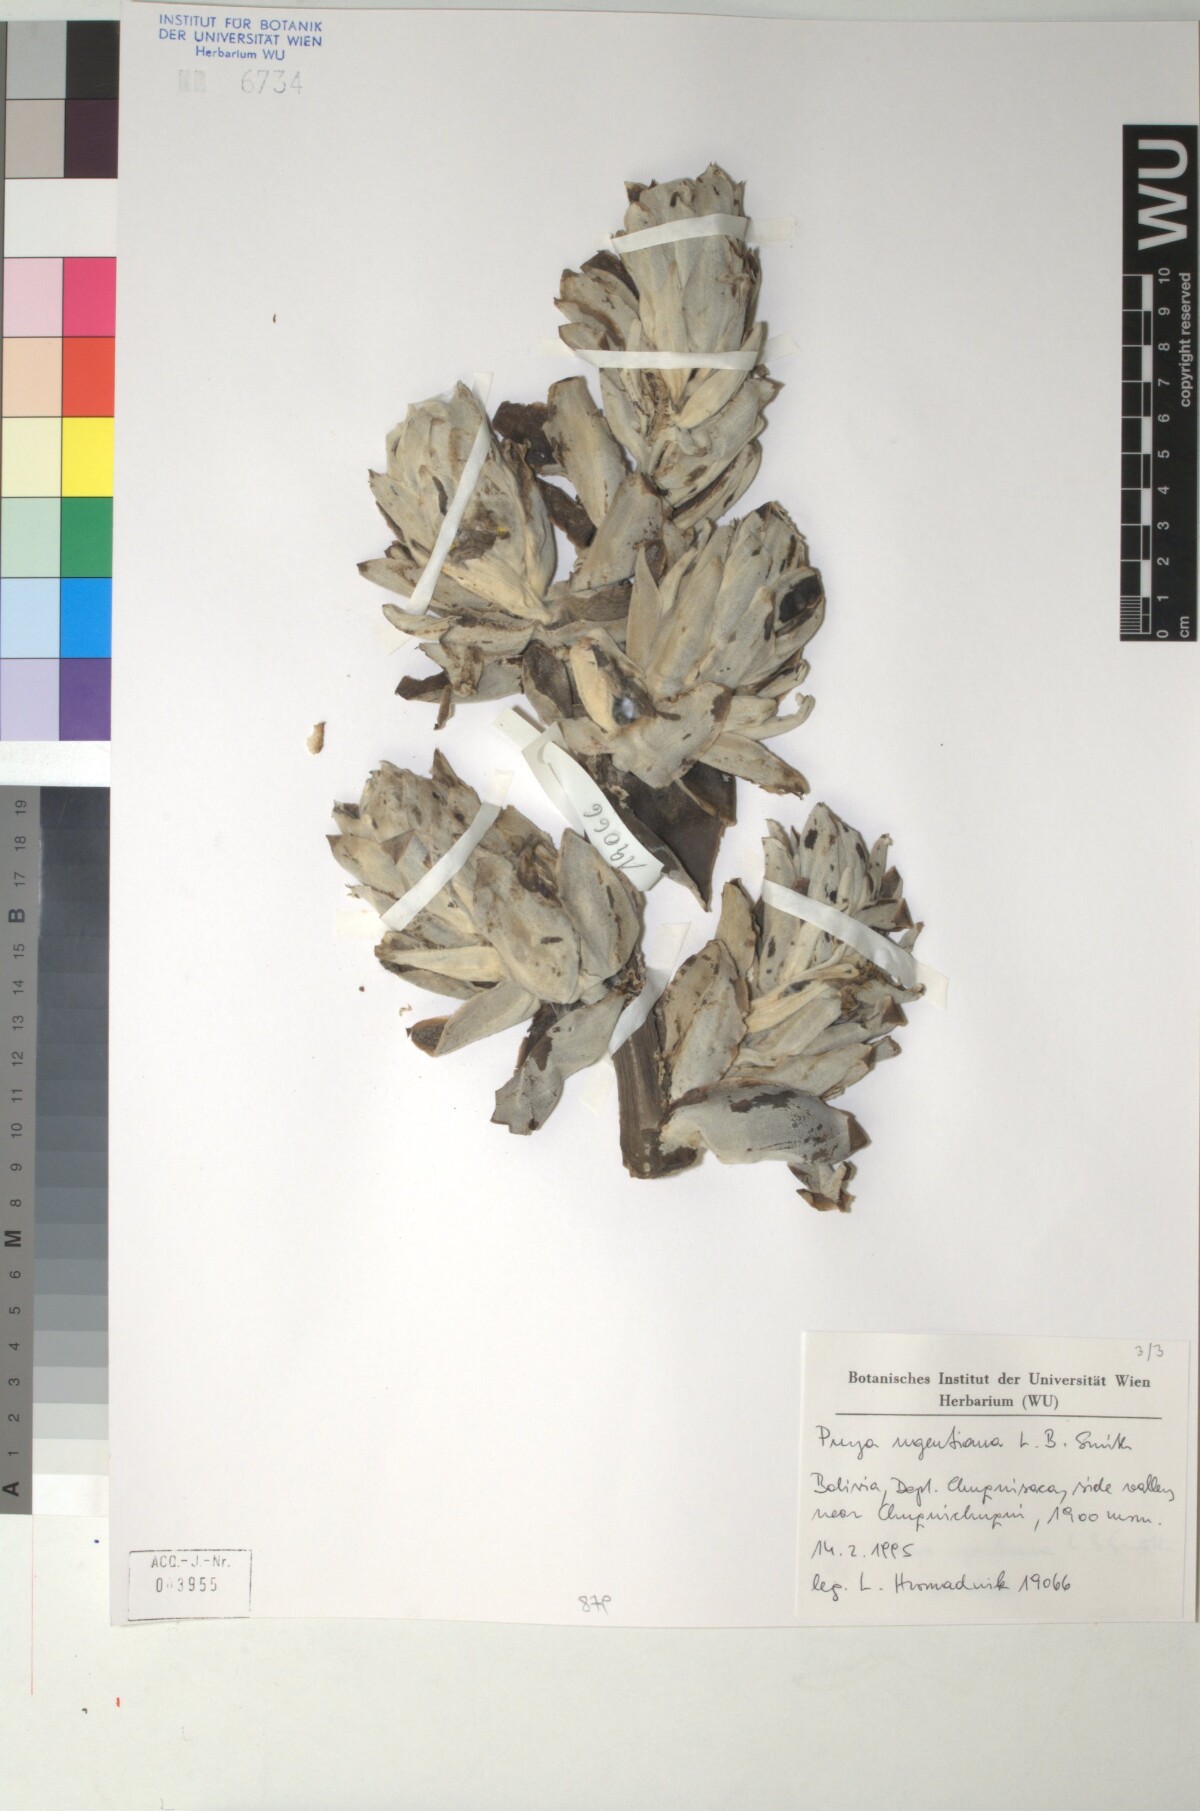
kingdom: Plantae
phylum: Tracheophyta
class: Liliopsida
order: Poales
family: Bromeliaceae
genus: Puya
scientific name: Puya ugentiana
